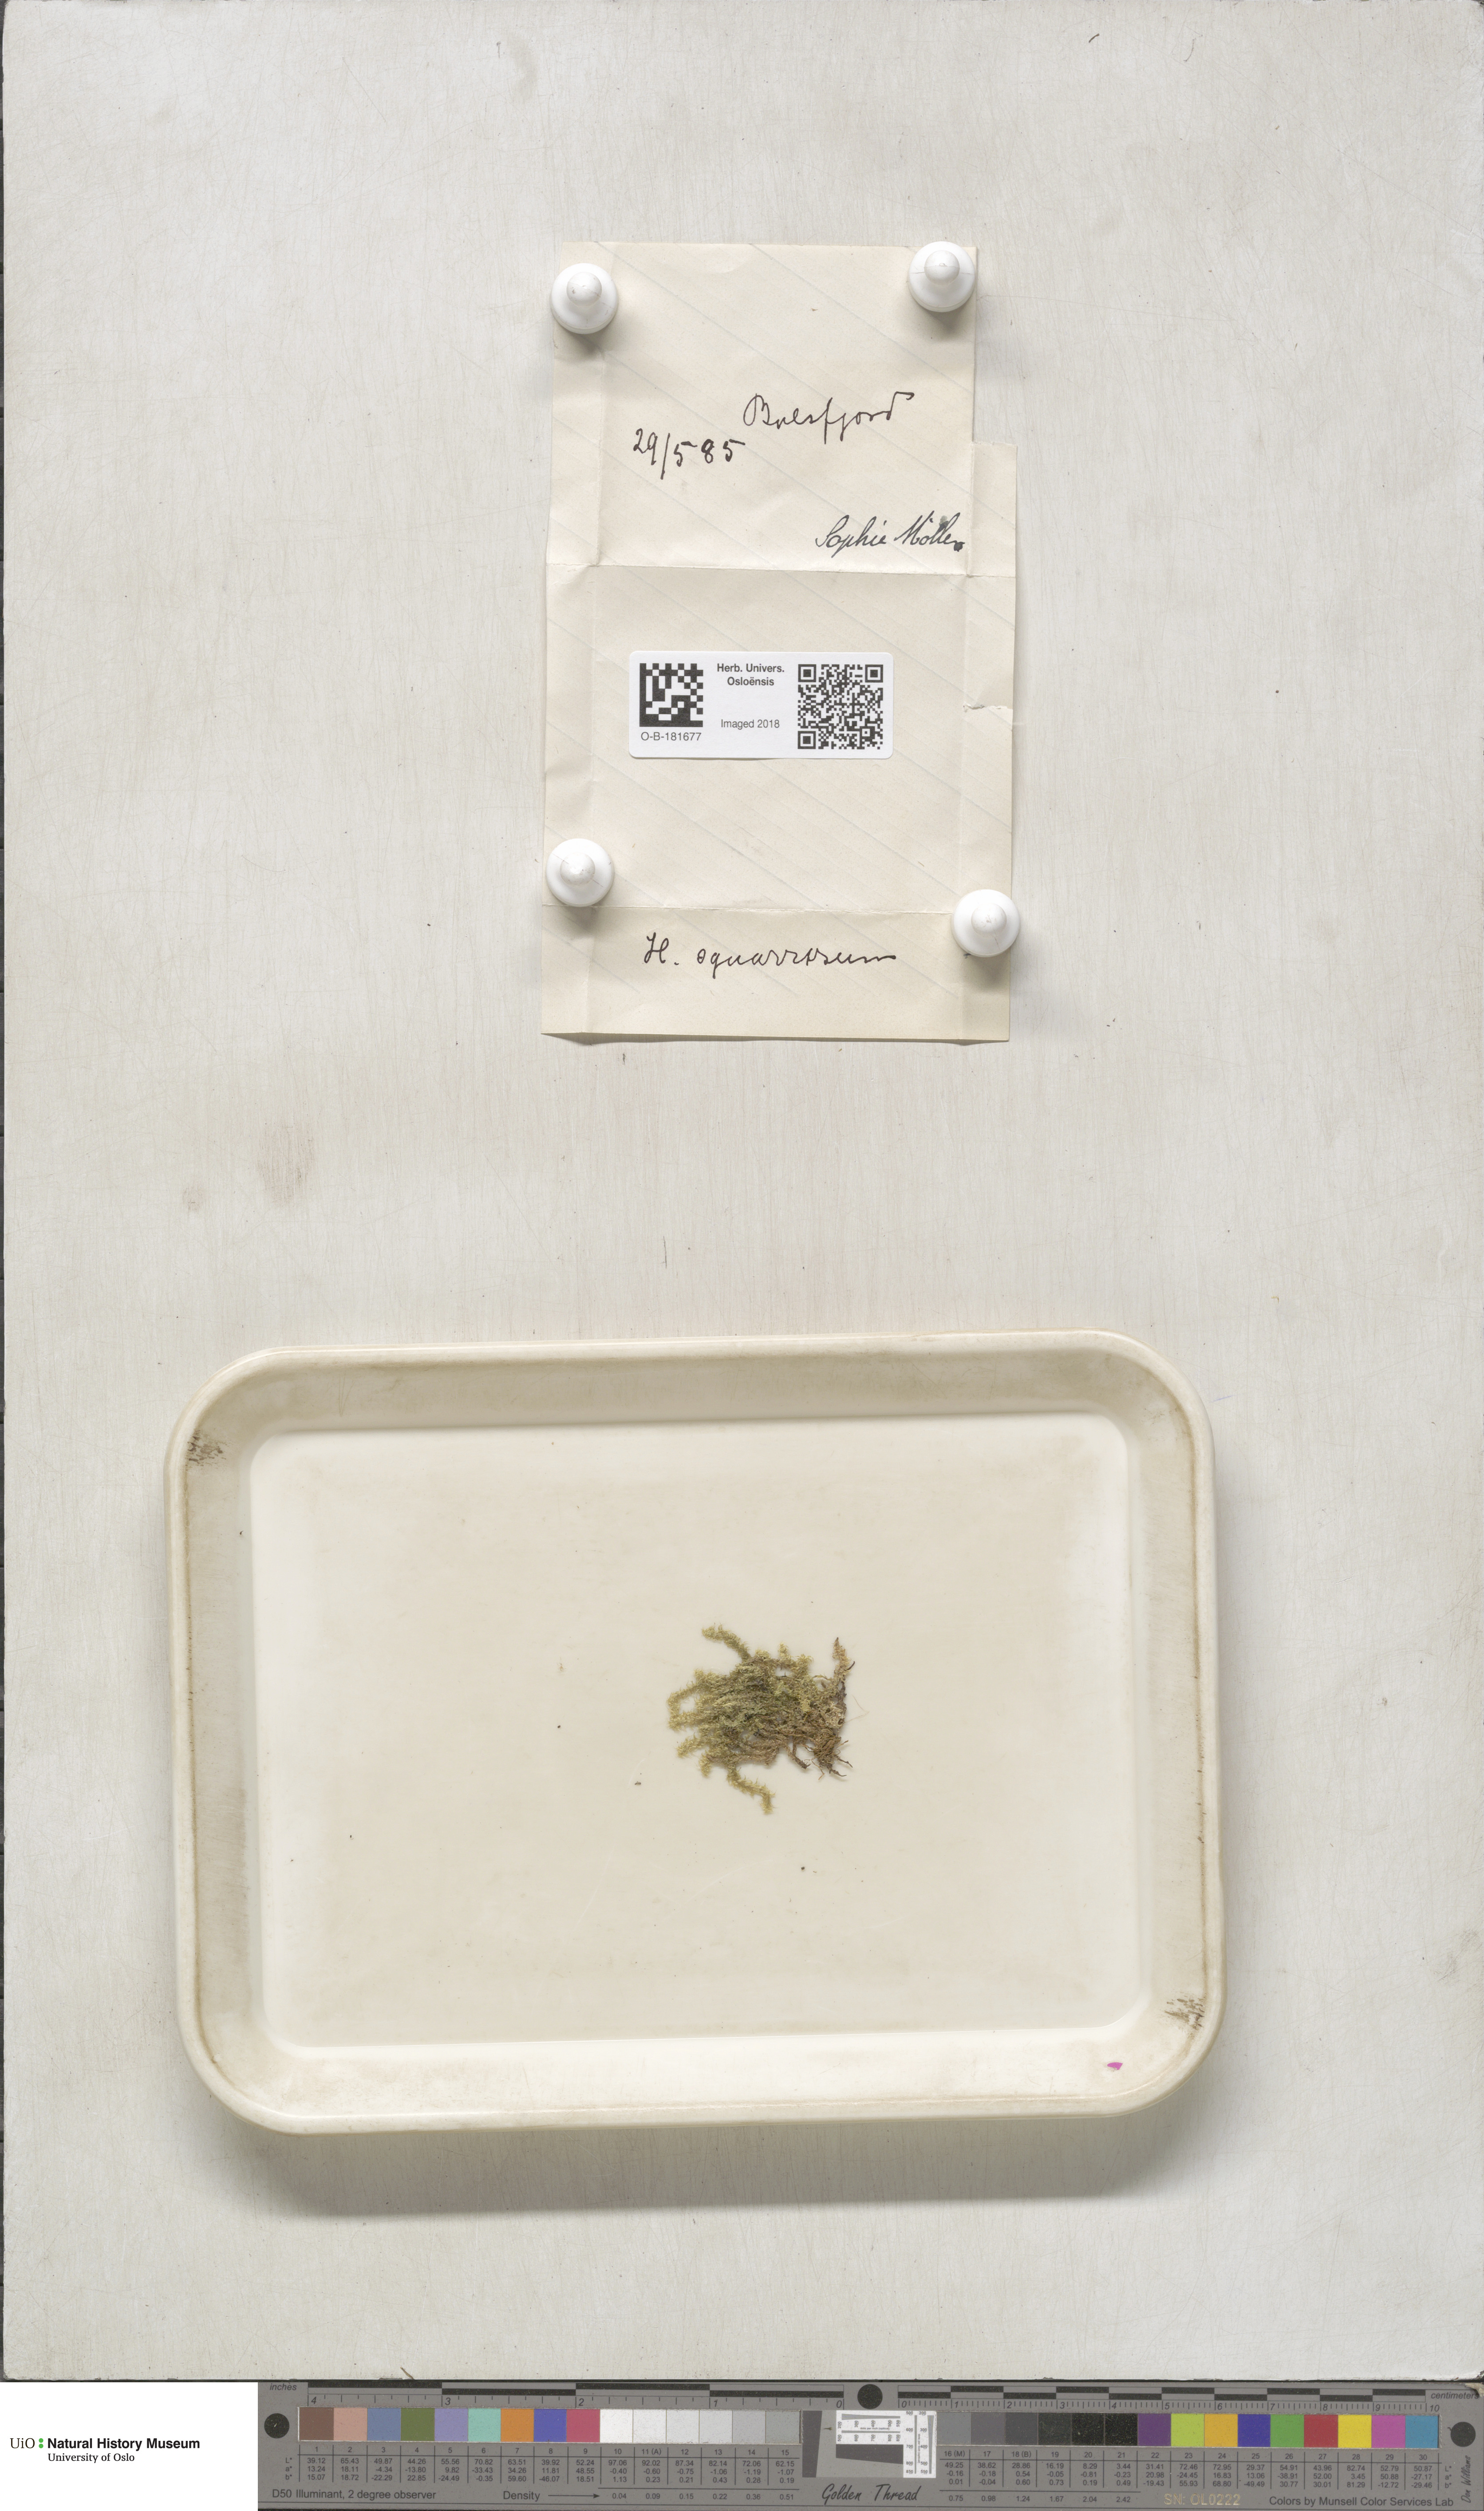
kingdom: Plantae
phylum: Bryophyta
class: Bryopsida
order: Hypnales
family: Hylocomiaceae
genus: Rhytidiadelphus
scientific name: Rhytidiadelphus squarrosus
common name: Springy turf-moss
